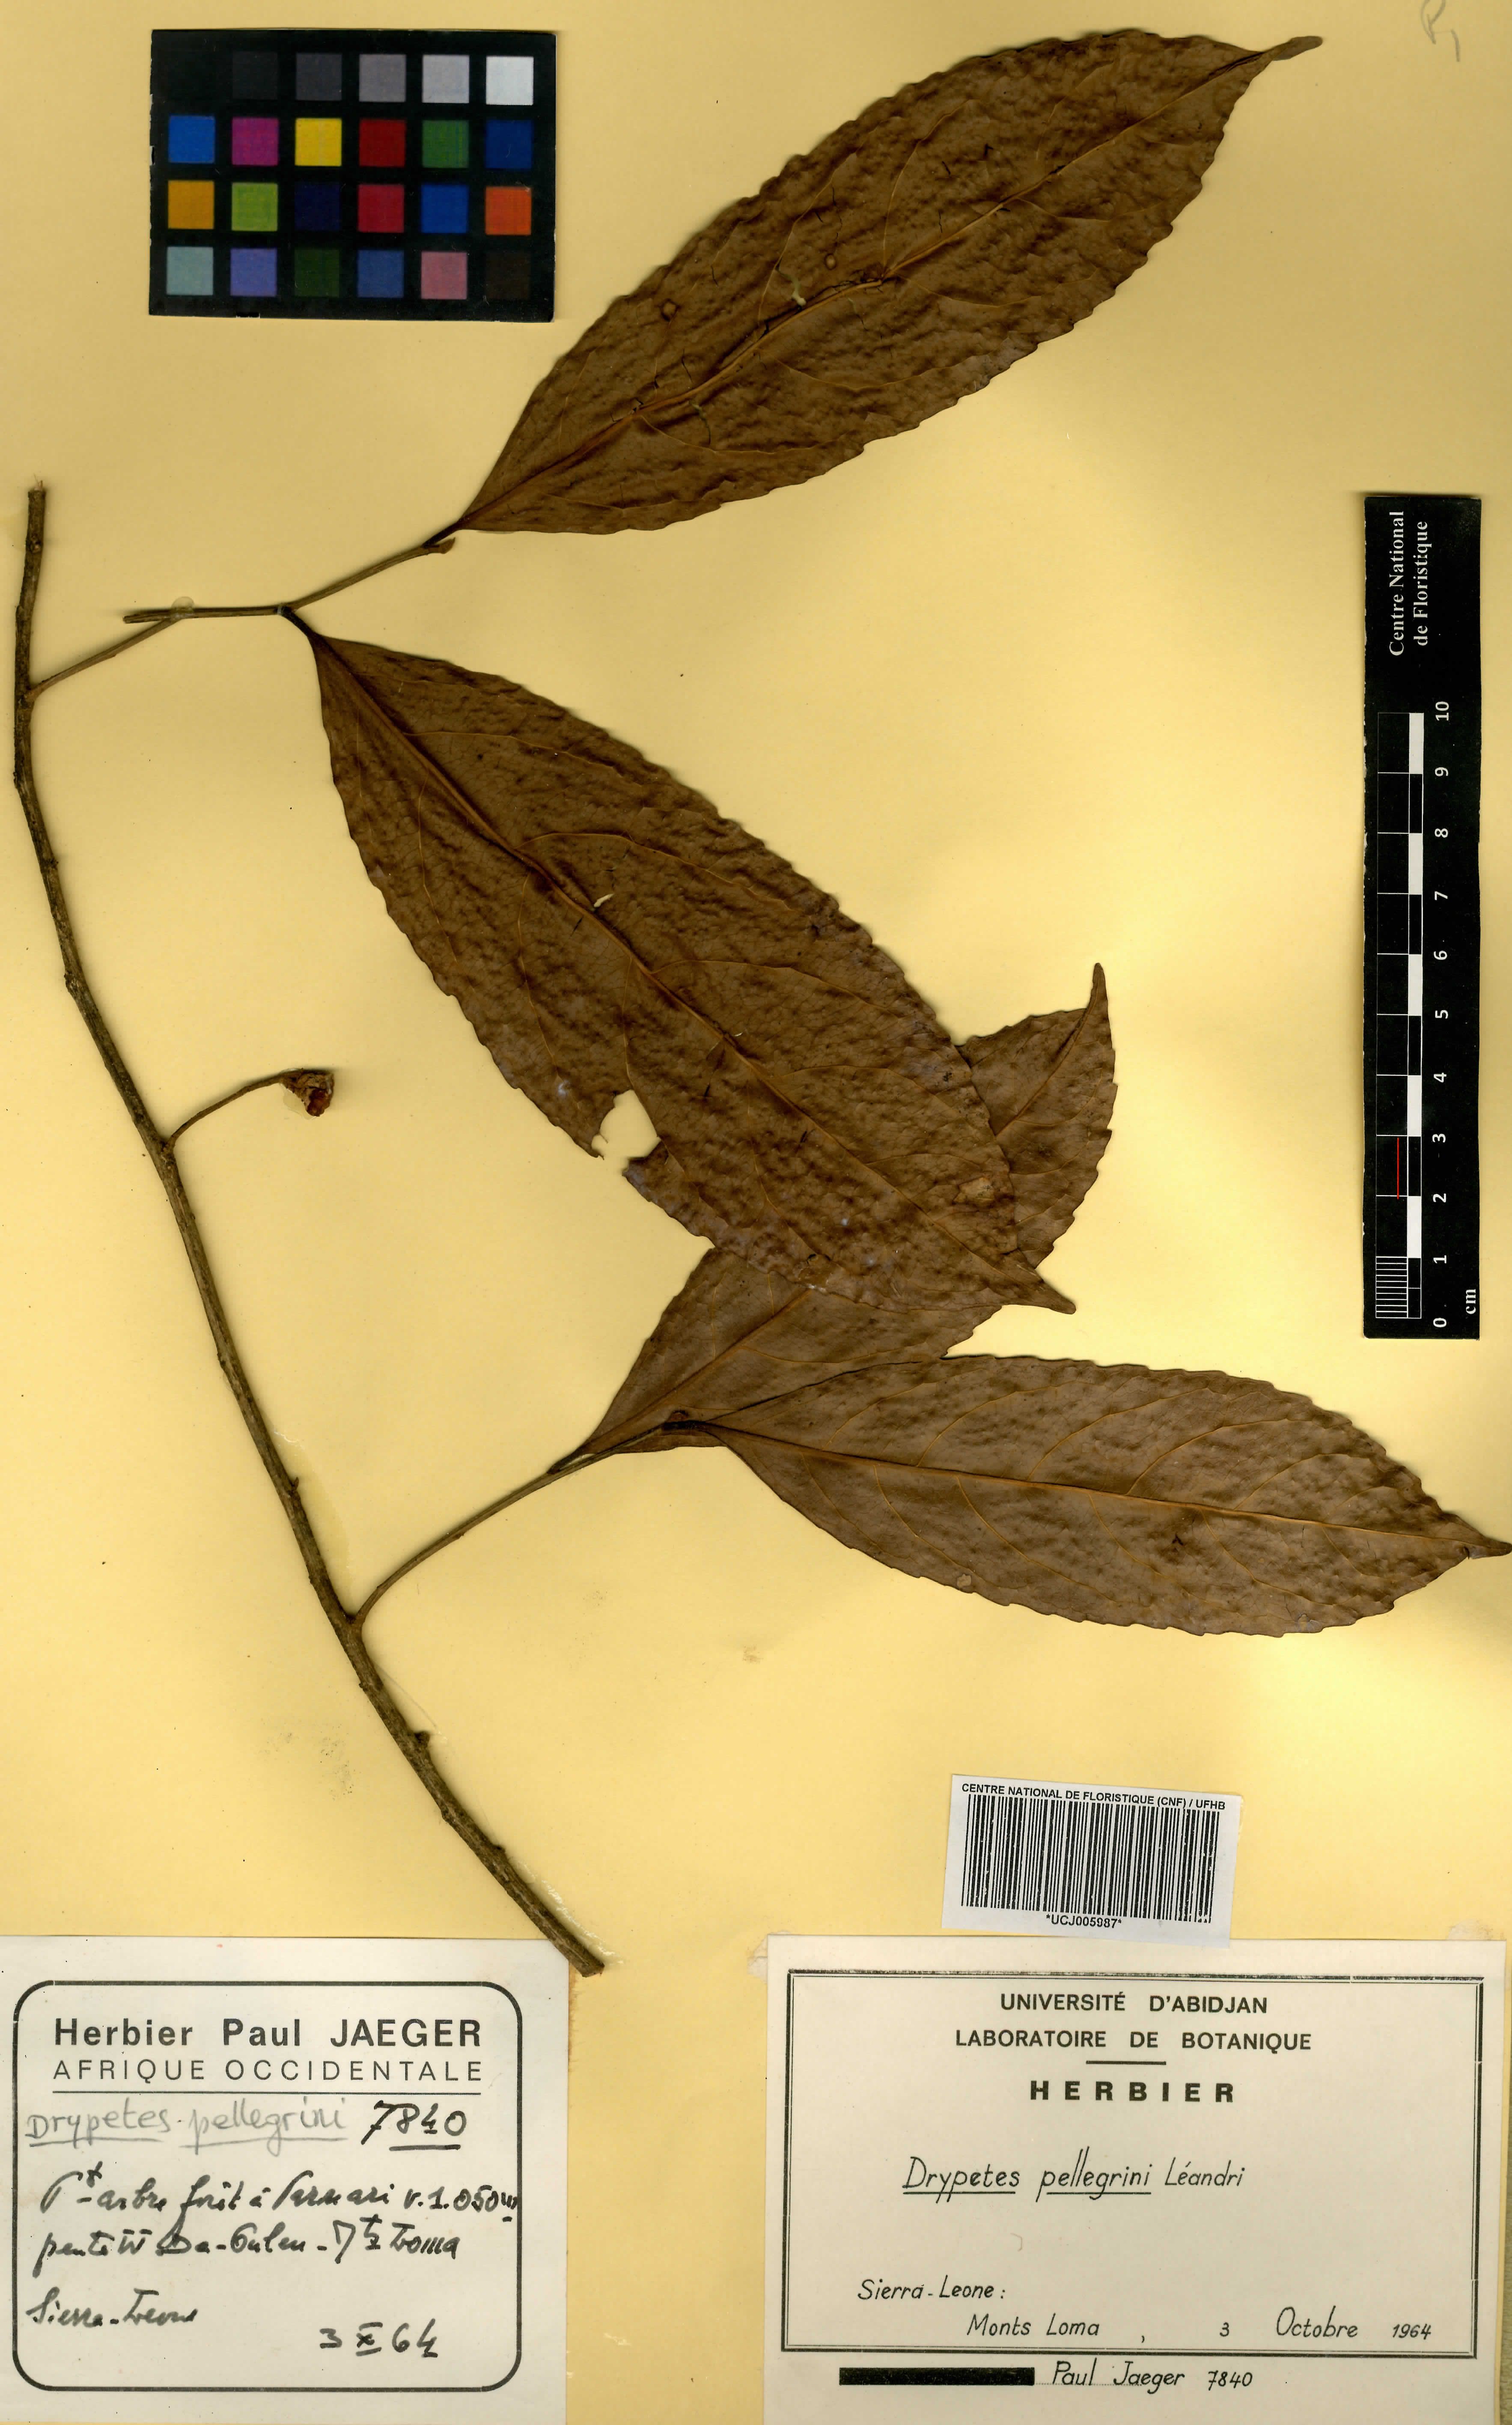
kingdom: Plantae
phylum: Tracheophyta
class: Magnoliopsida
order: Malpighiales
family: Putranjivaceae
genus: Drypetes
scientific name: Drypetes pellegrinii
